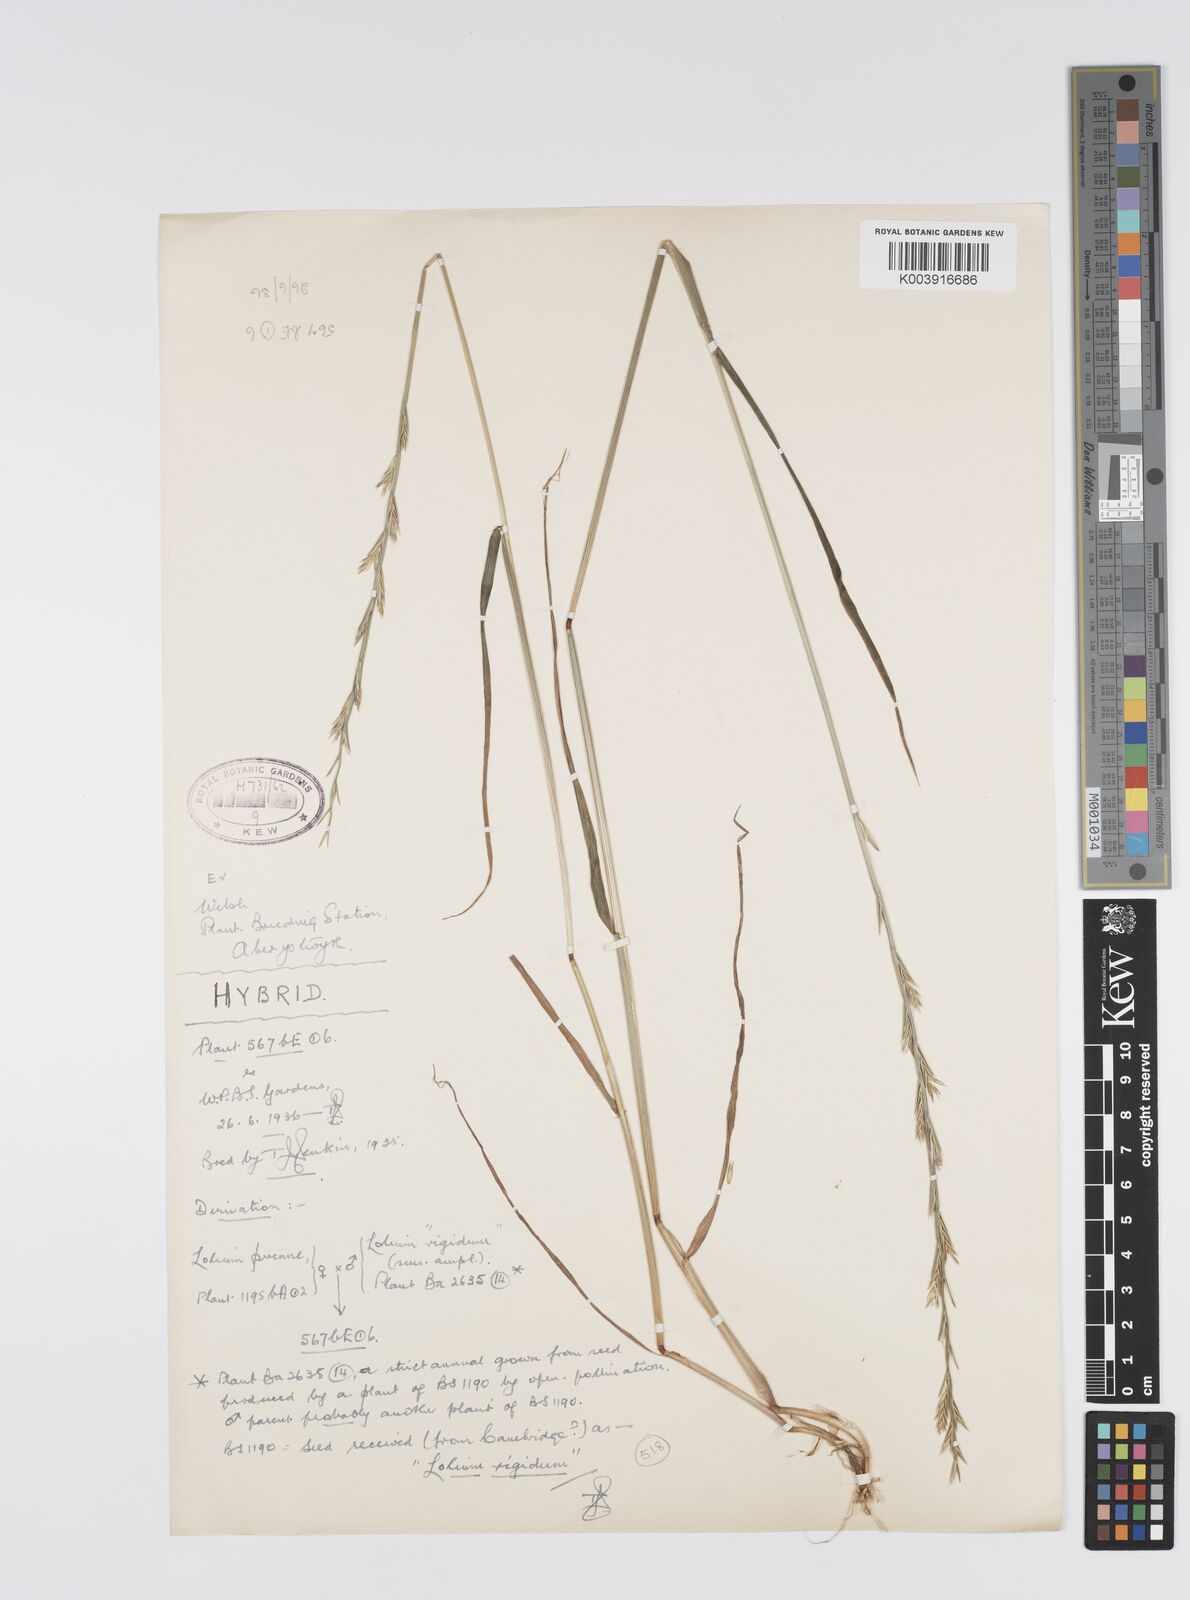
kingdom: Plantae
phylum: Tracheophyta
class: Liliopsida
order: Poales
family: Poaceae
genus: Lolium
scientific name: Lolium perenne
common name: Perennial ryegrass
